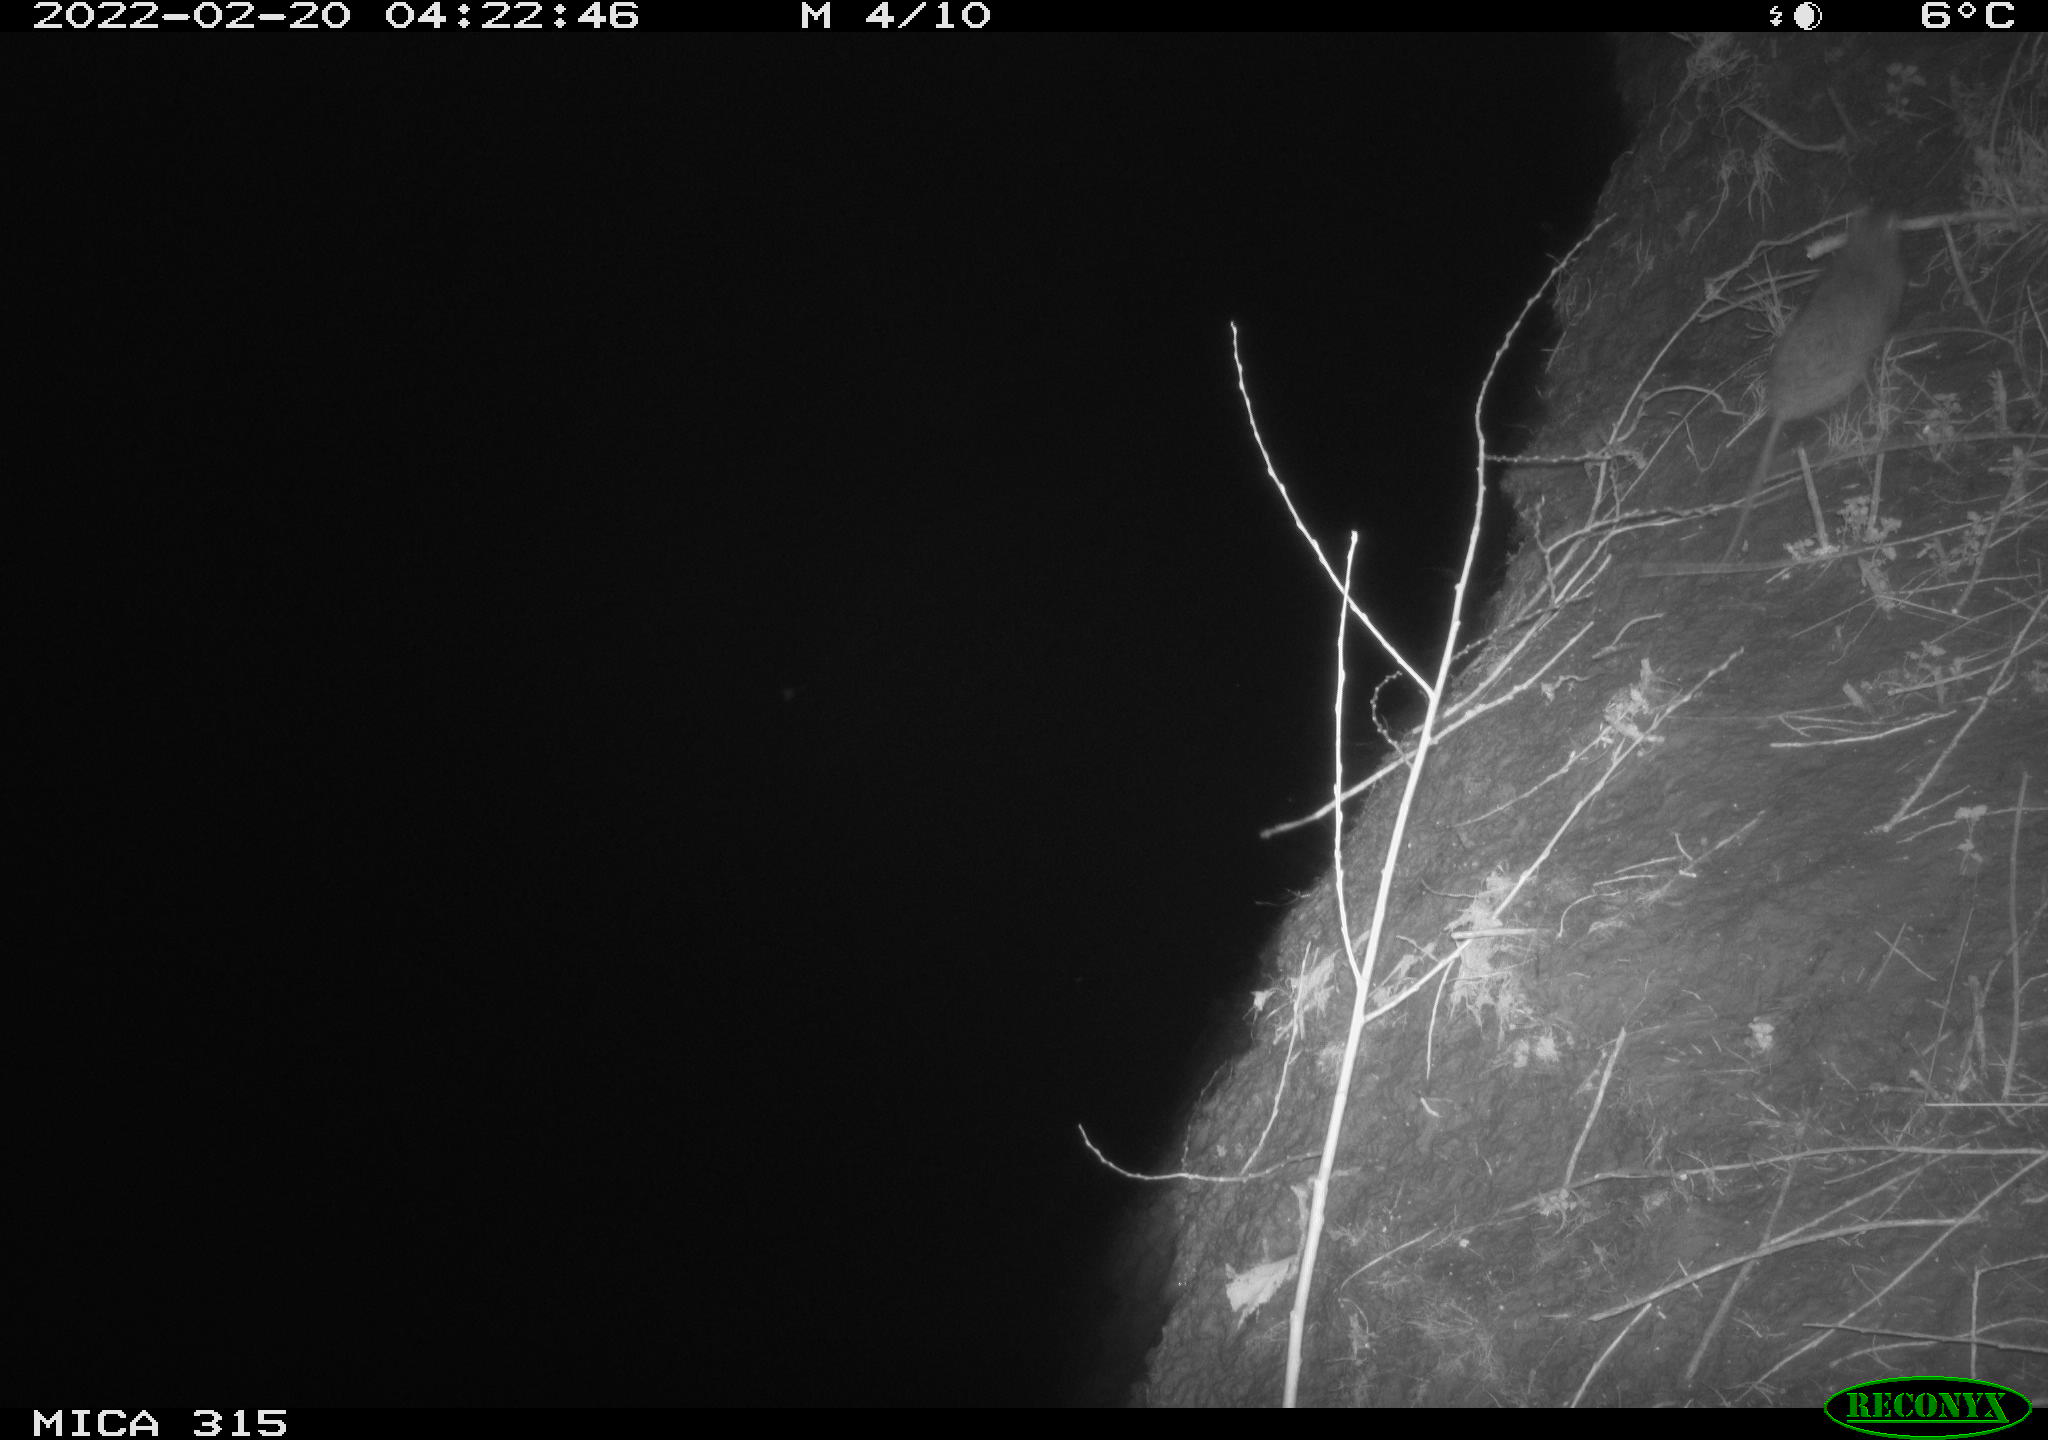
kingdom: Animalia
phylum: Chordata
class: Mammalia
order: Rodentia
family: Muridae
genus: Rattus
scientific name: Rattus norvegicus
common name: Brown rat
